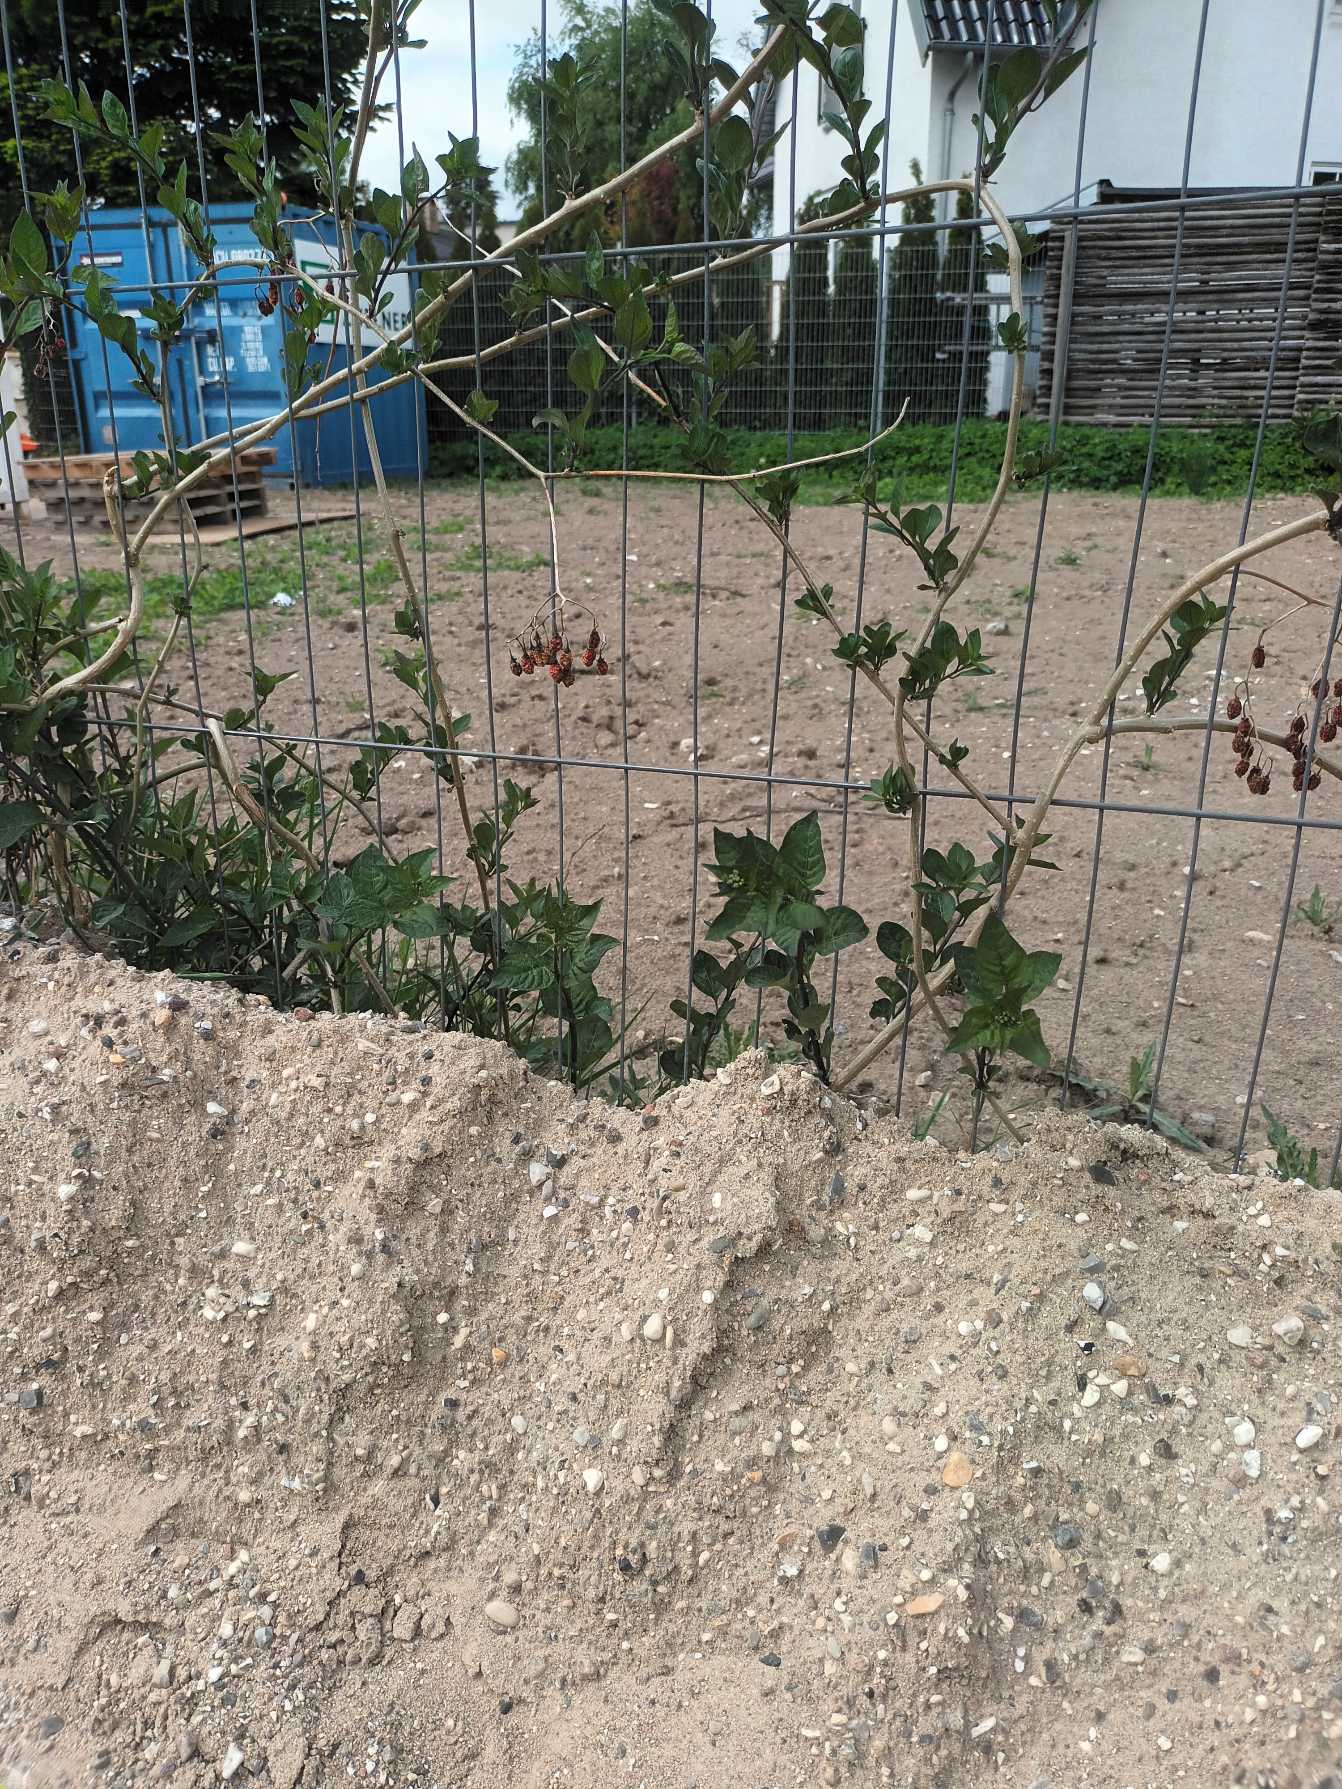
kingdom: Plantae
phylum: Tracheophyta
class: Magnoliopsida
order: Solanales
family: Solanaceae
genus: Solanum
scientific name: Solanum dulcamara
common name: Bittersød natskygge
